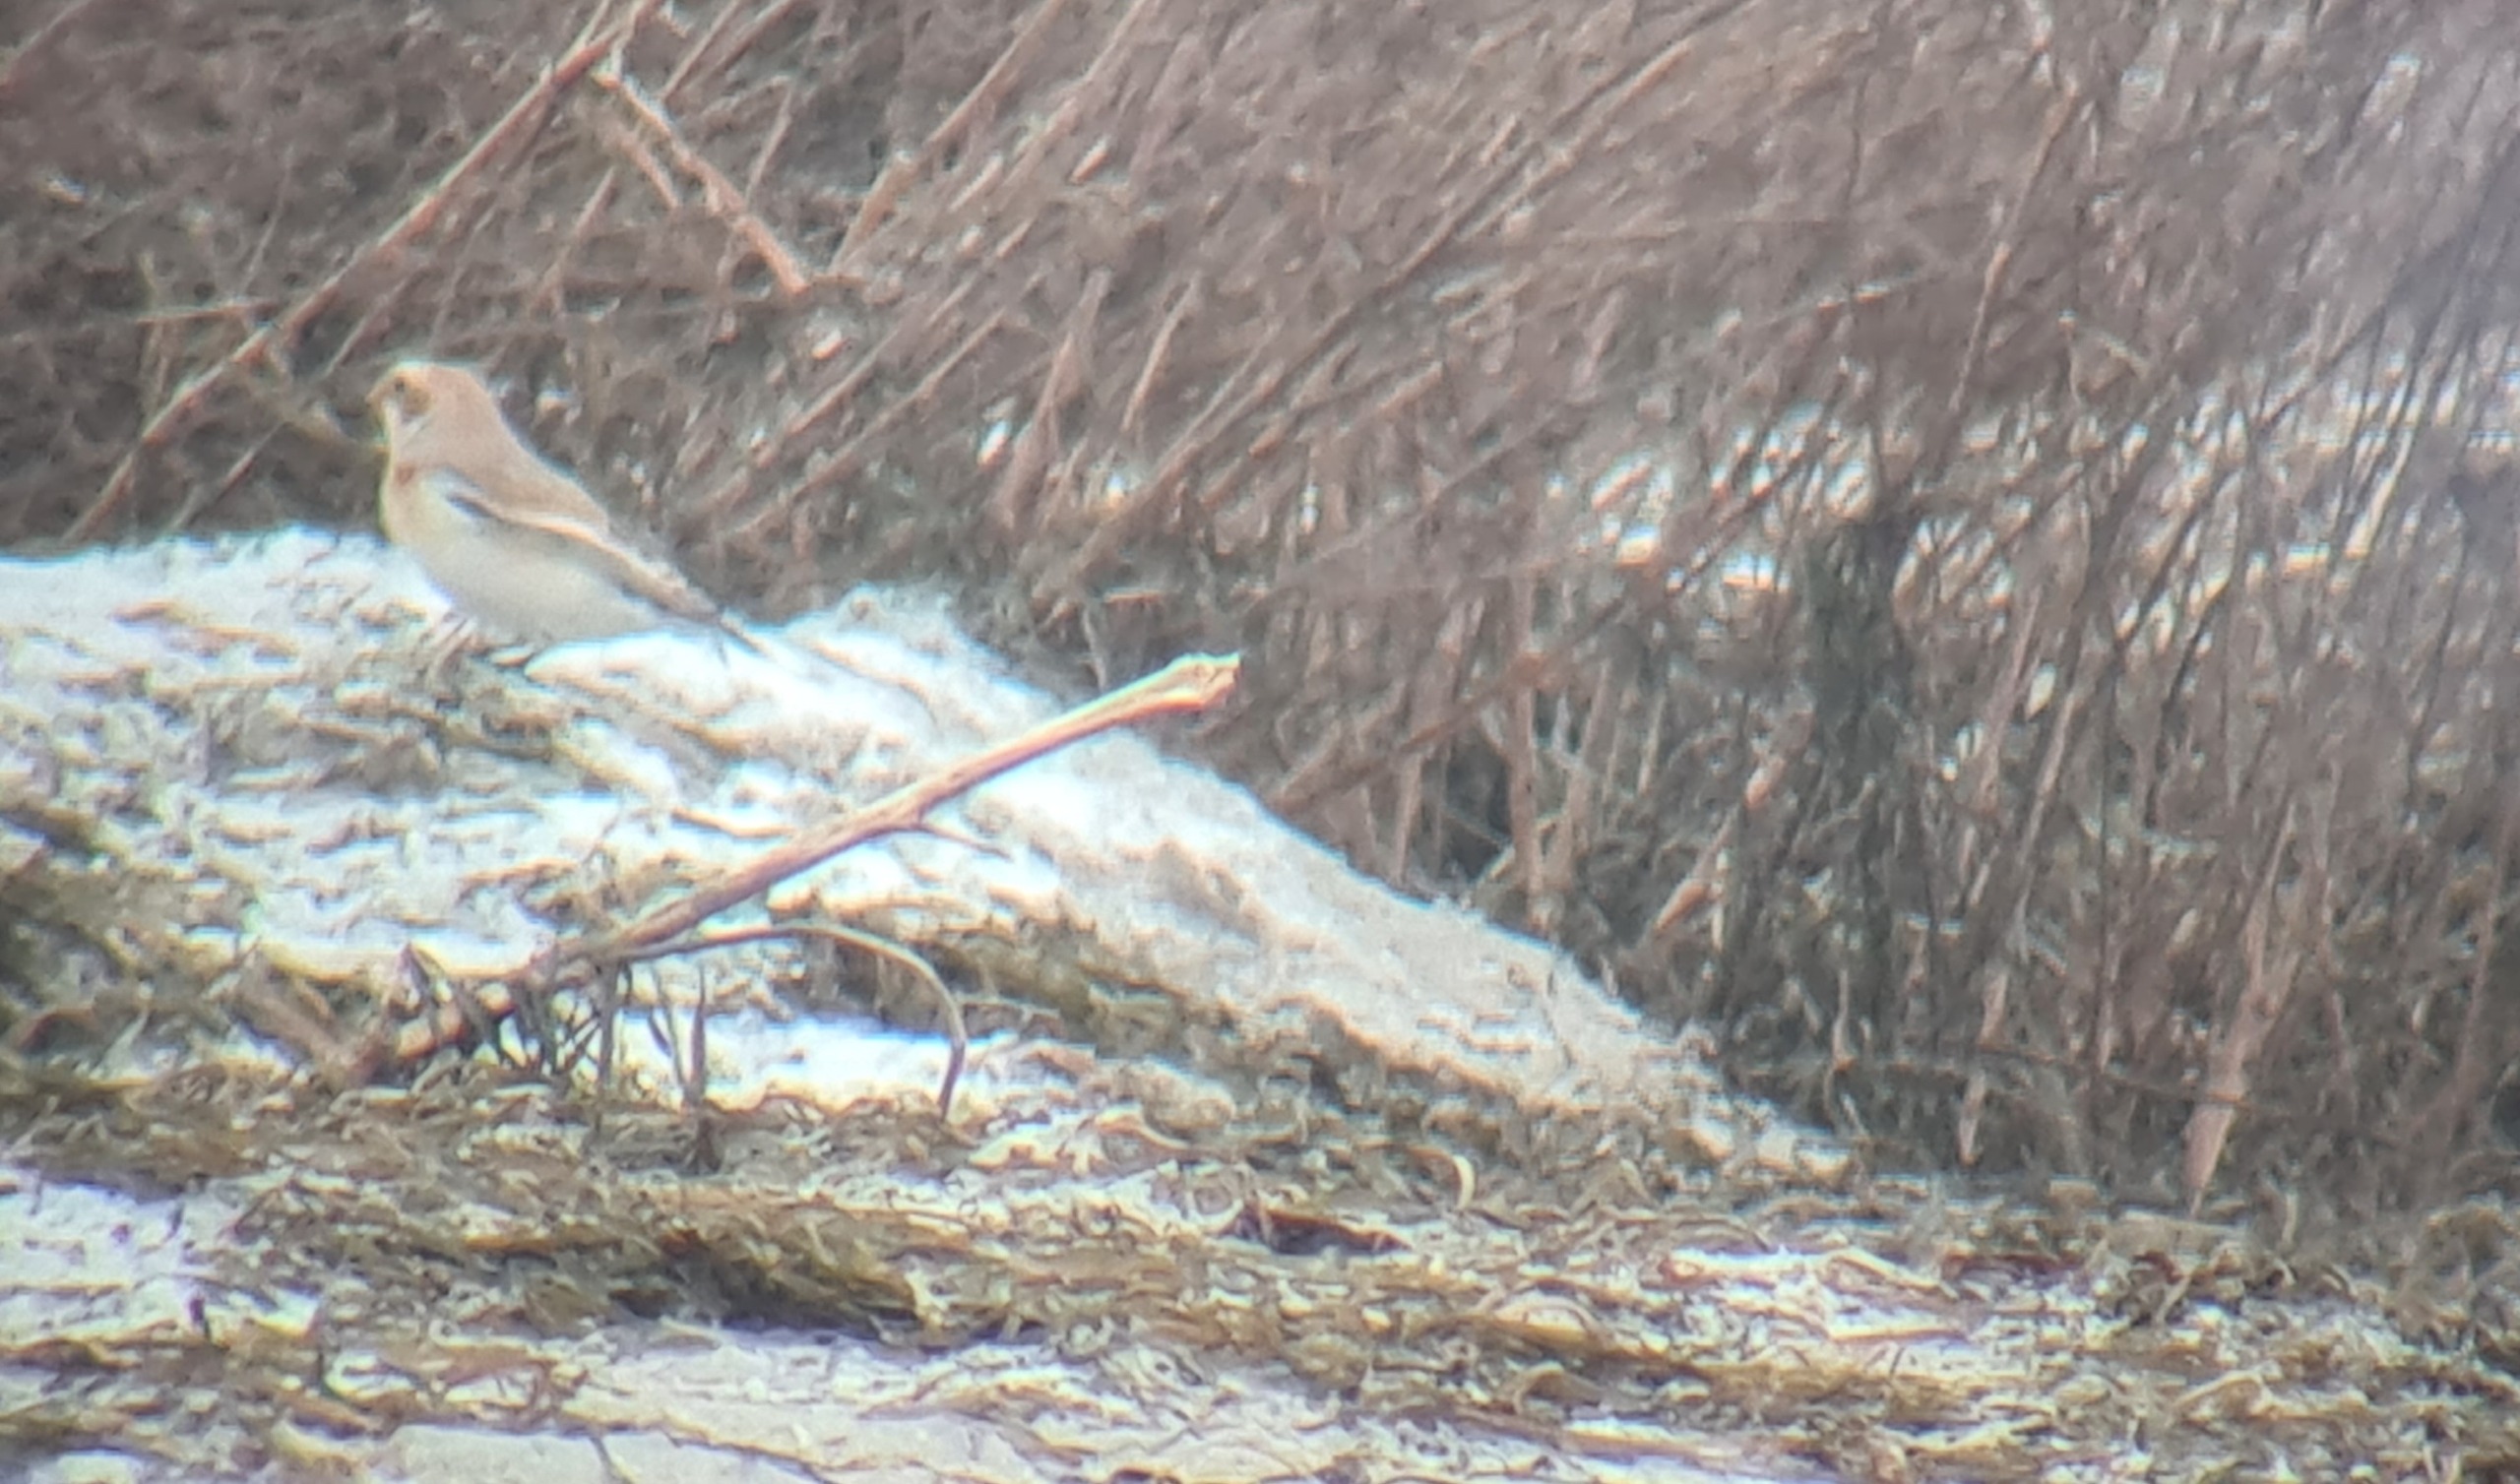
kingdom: Animalia
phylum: Chordata
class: Aves
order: Passeriformes
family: Calcariidae
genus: Plectrophenax
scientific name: Plectrophenax nivalis
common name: Snespurv
